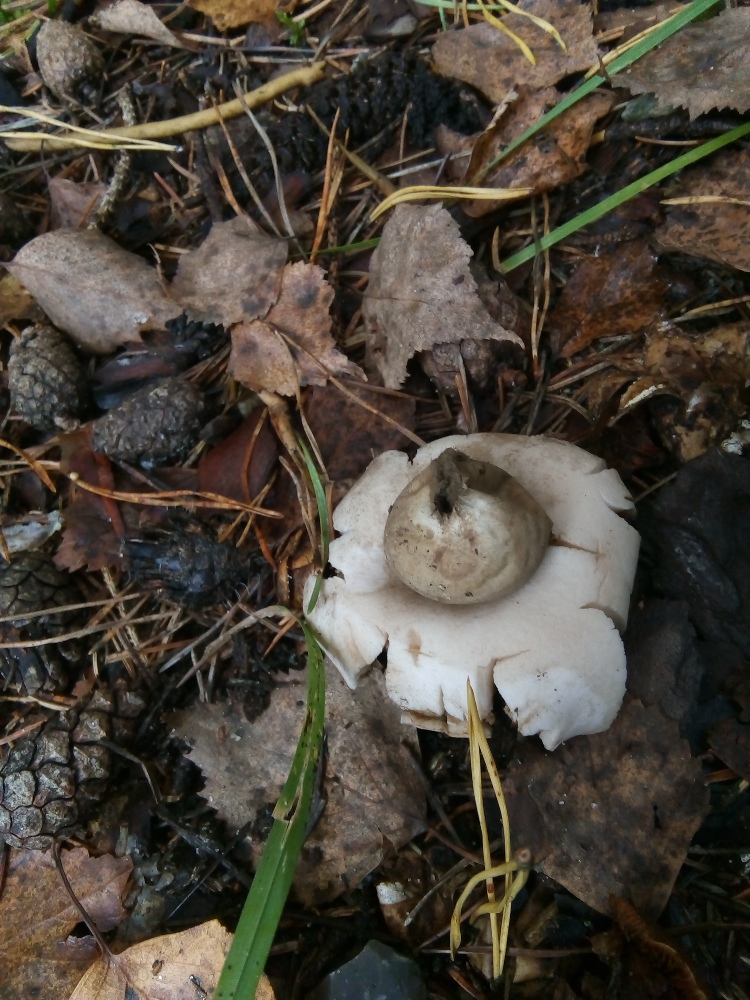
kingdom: Fungi
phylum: Basidiomycota
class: Agaricomycetes
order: Geastrales
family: Geastraceae
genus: Geastrum
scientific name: Geastrum fimbriatum
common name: frynset stjernebold
